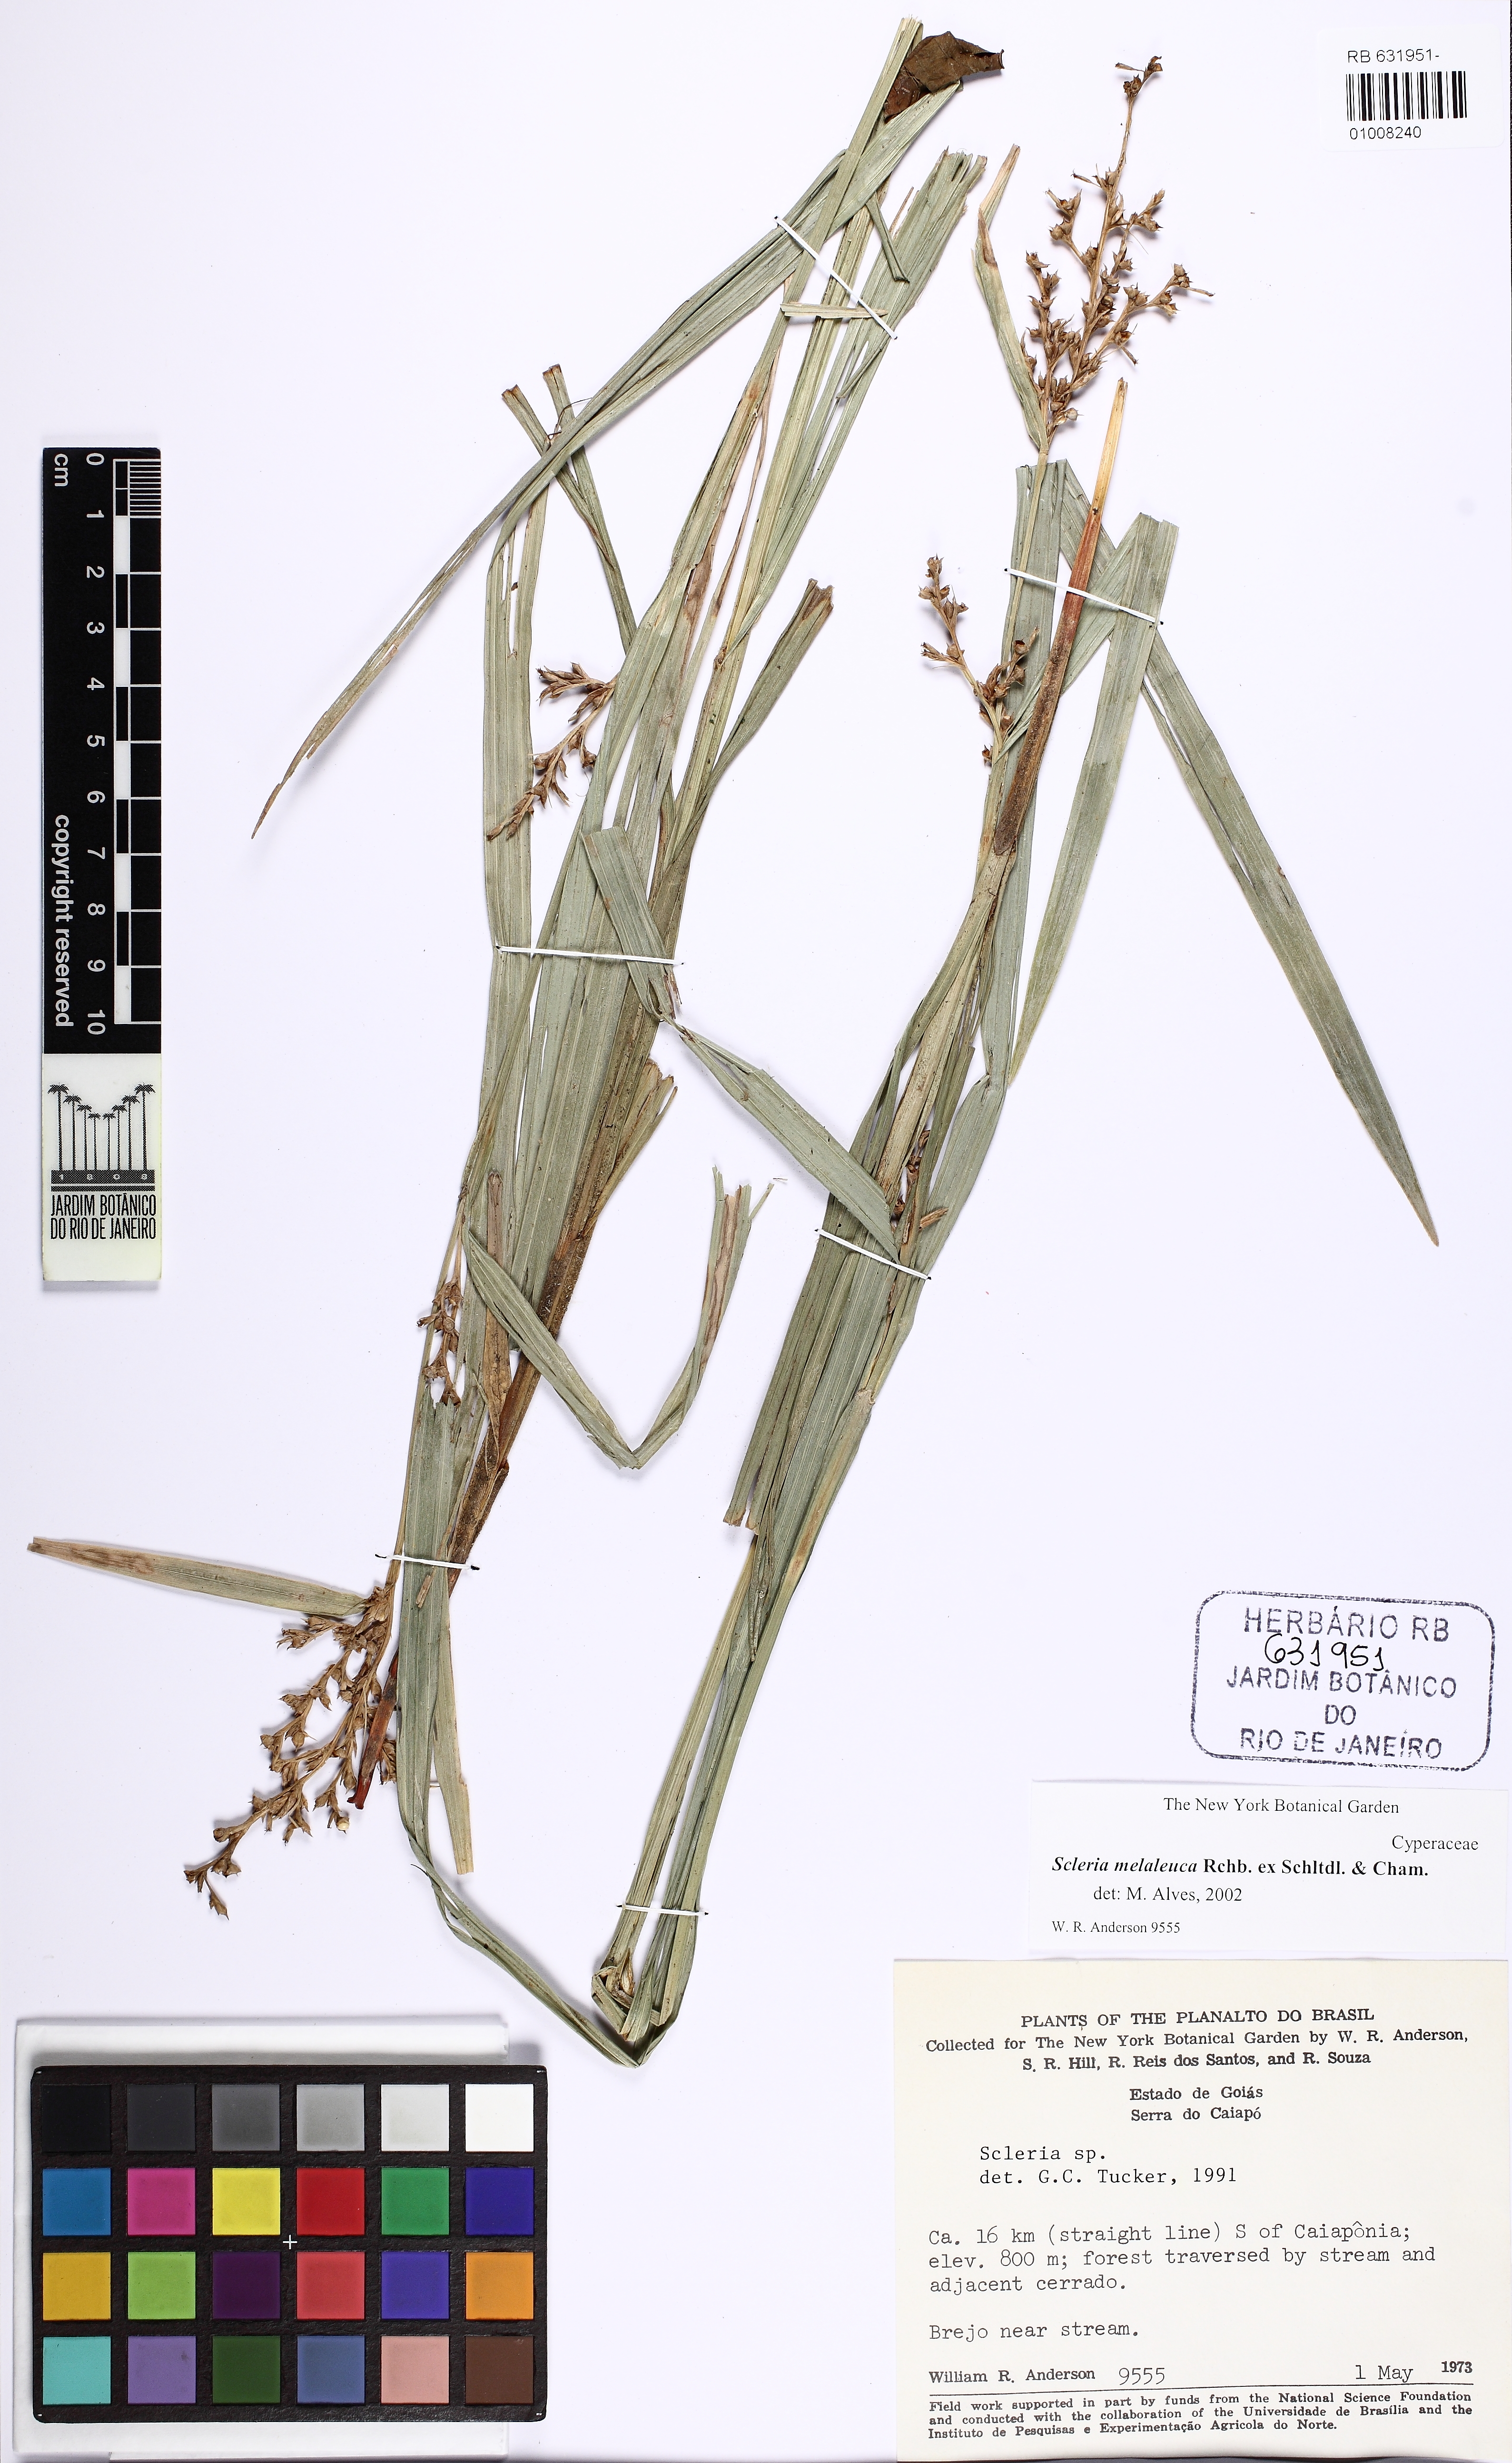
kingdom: Plantae
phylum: Tracheophyta
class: Liliopsida
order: Poales
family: Cyperaceae
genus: Scleria
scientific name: Scleria gaertneri
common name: Cortadera blanca
